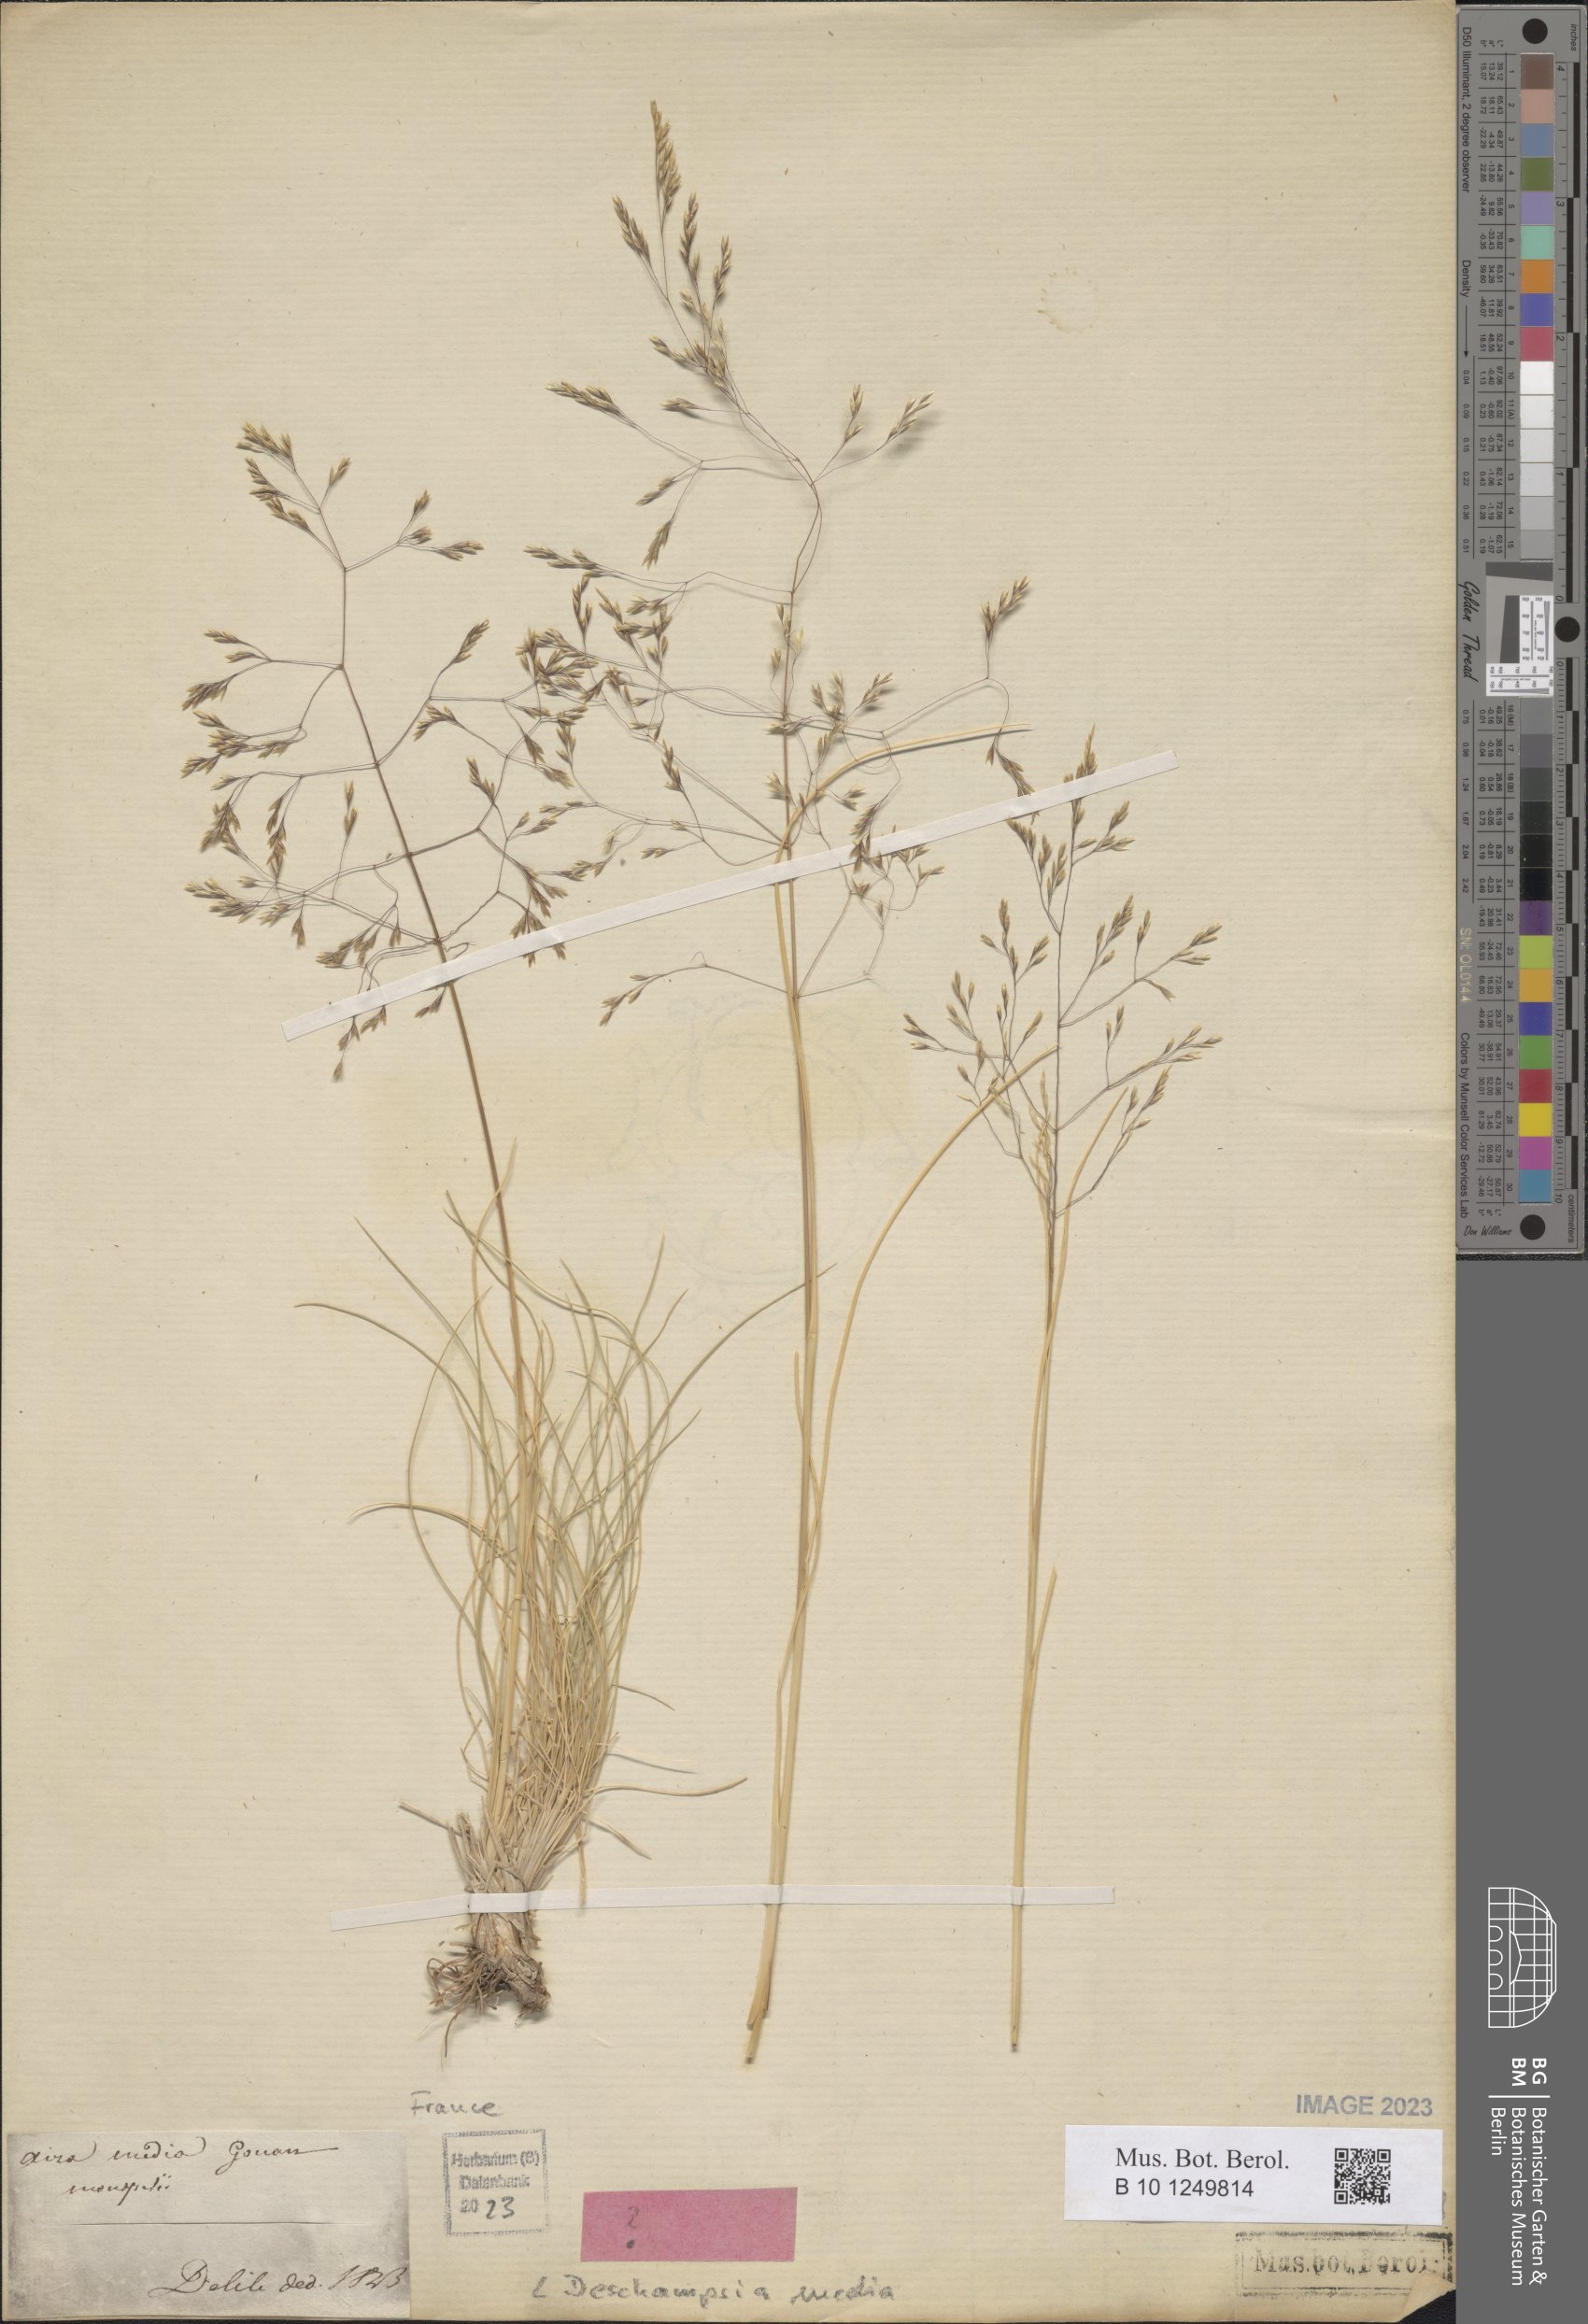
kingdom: Plantae
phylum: Tracheophyta
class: Liliopsida
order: Poales
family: Poaceae
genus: Deschampsia
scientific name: Deschampsia media
